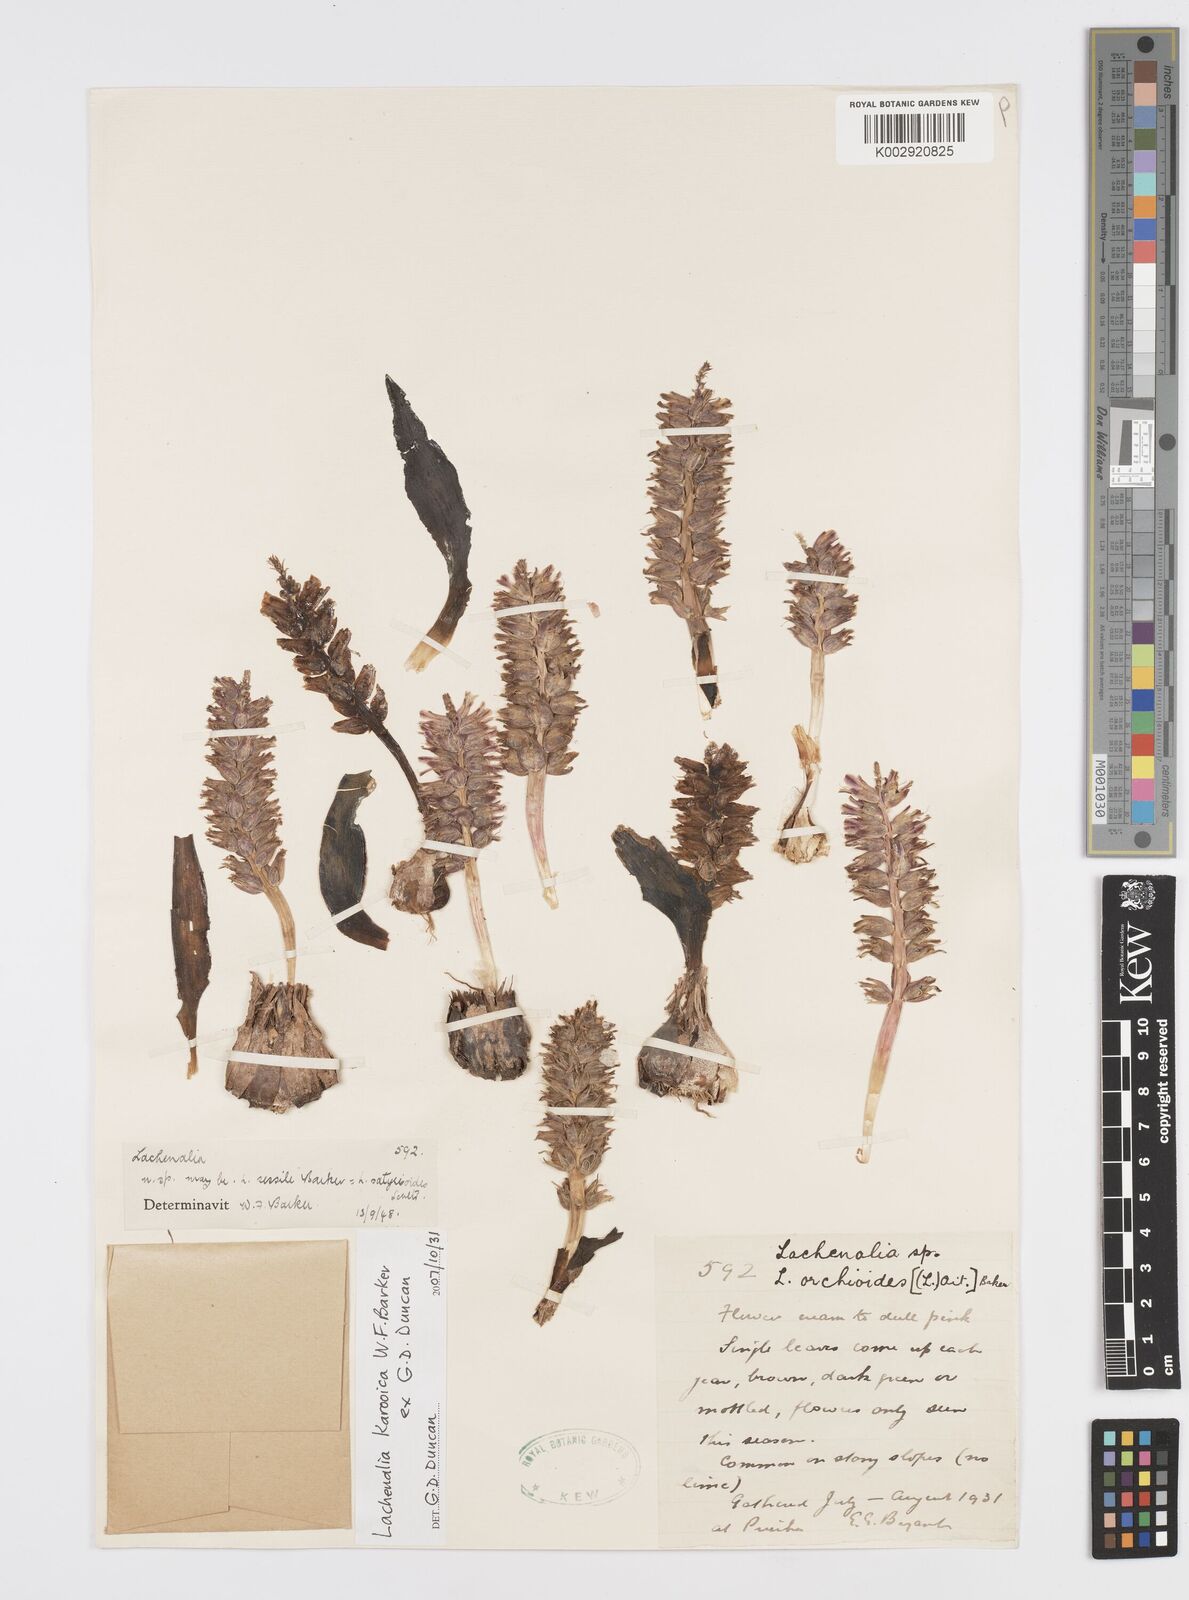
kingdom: Plantae
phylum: Tracheophyta
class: Liliopsida
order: Asparagales
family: Asparagaceae
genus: Lachenalia
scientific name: Lachenalia karooica
